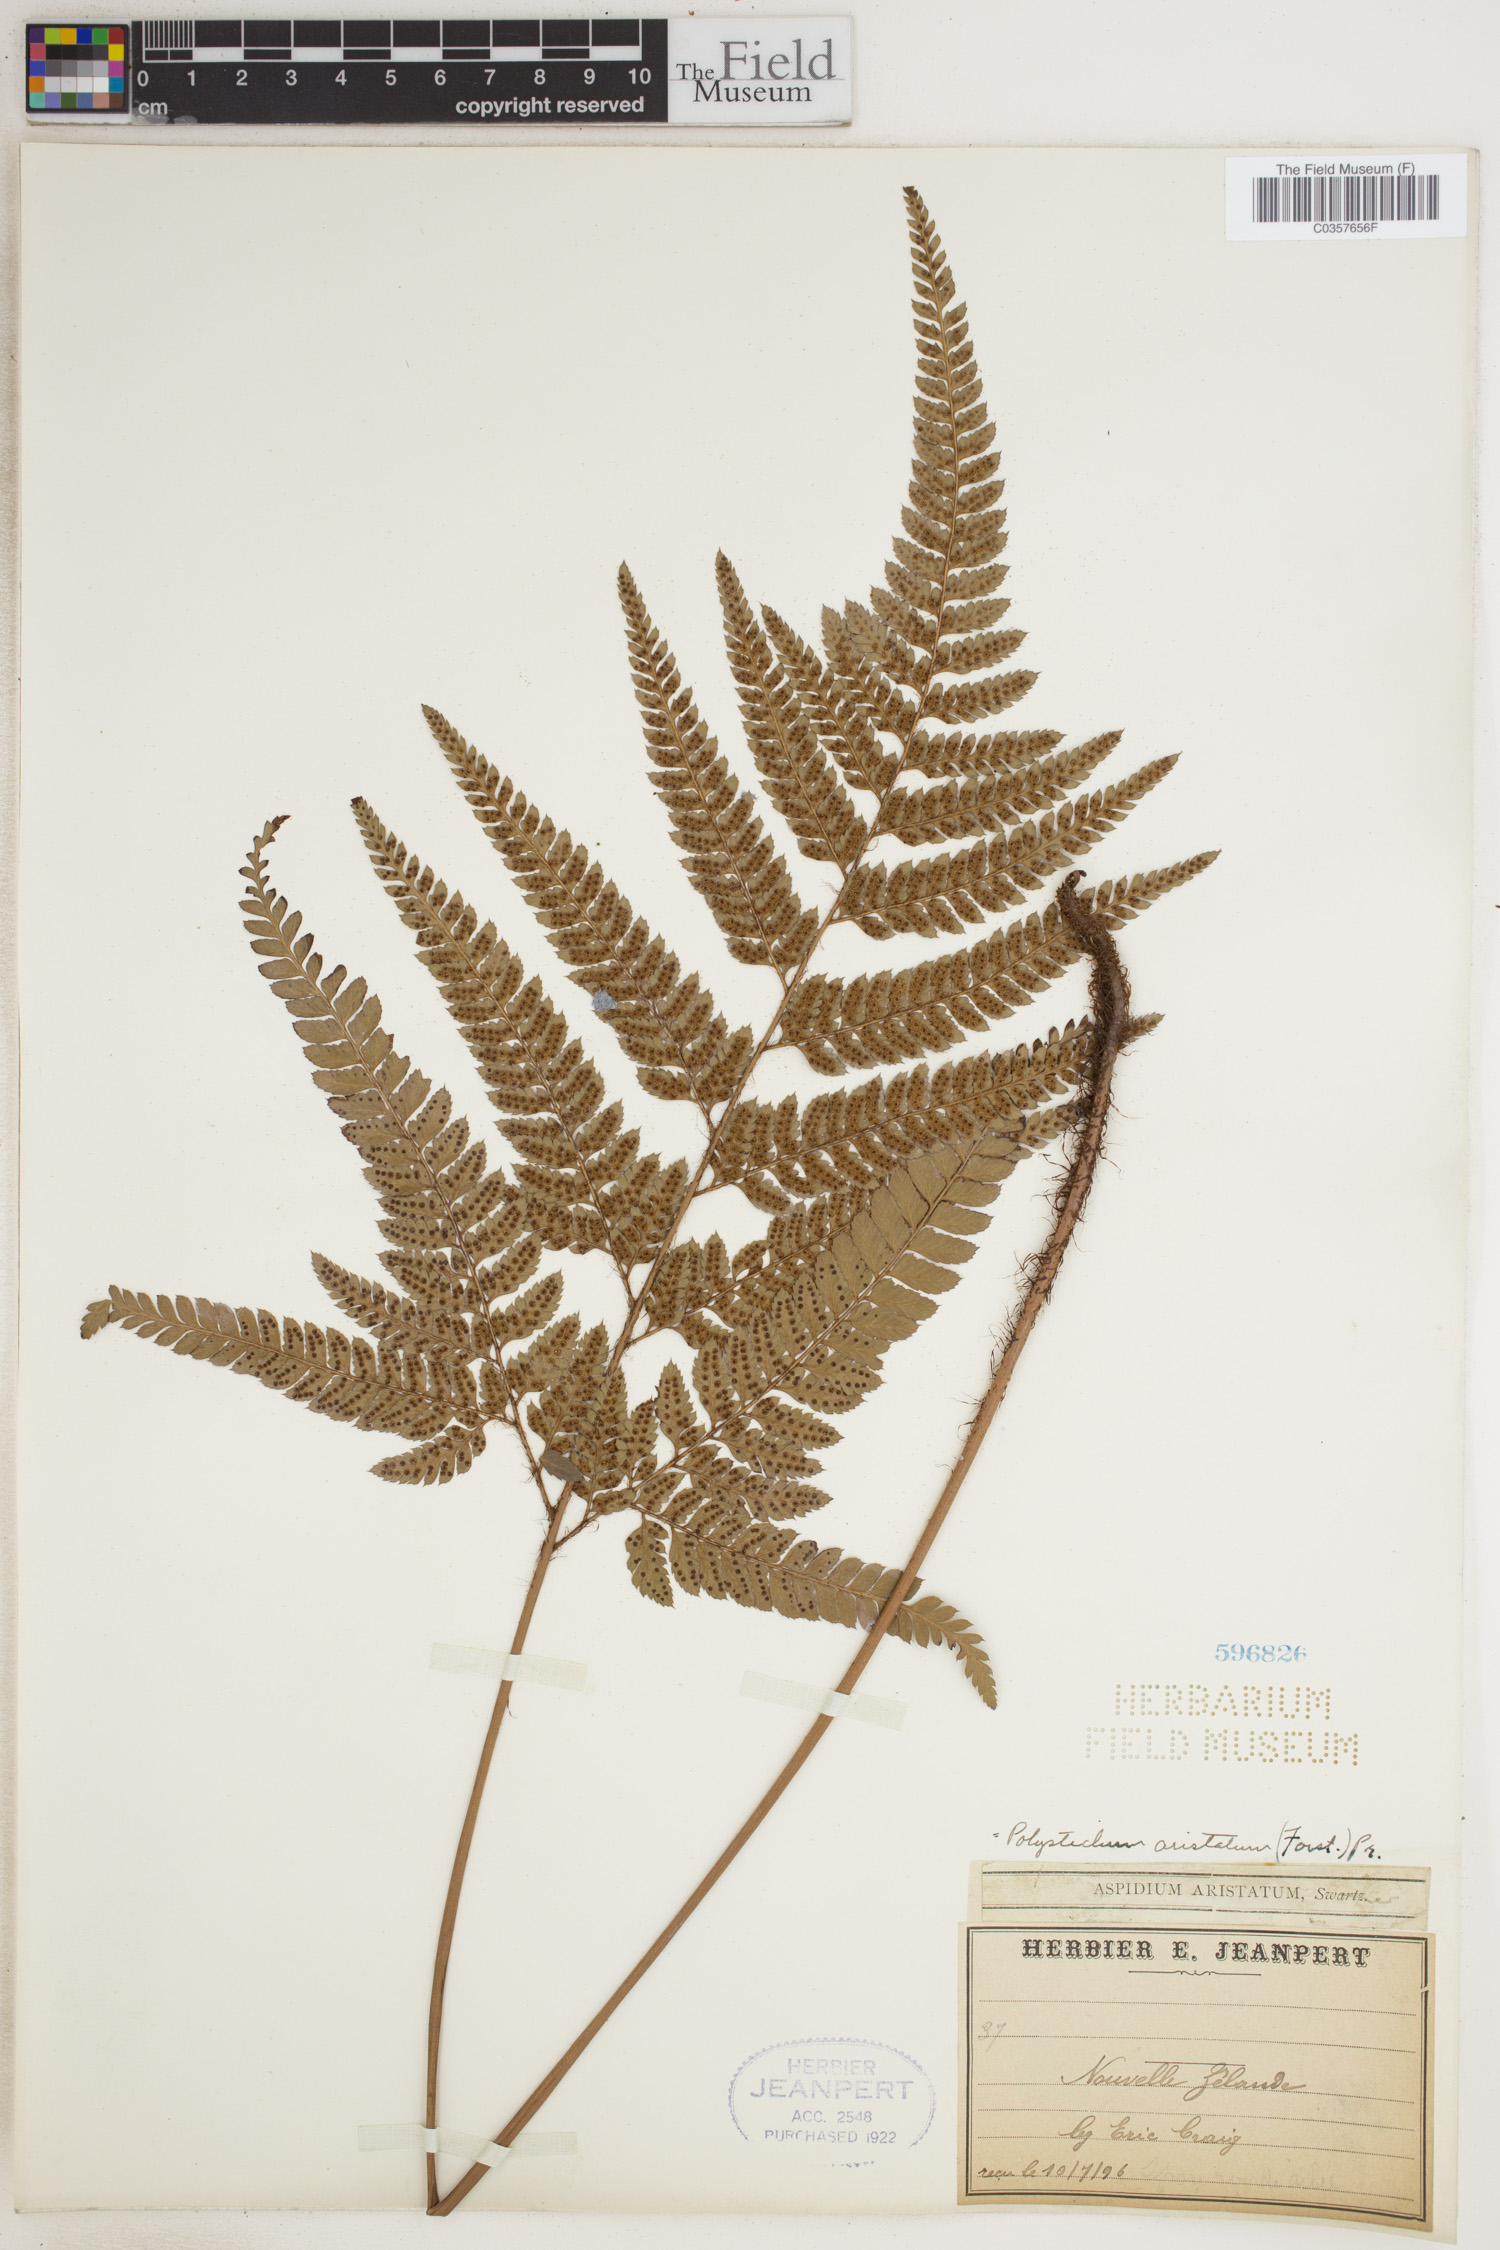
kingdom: Plantae
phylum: Tracheophyta
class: Polypodiopsida
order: Polypodiales
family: Dryopteridaceae
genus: Arachniodes
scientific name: Arachniodes aristata
